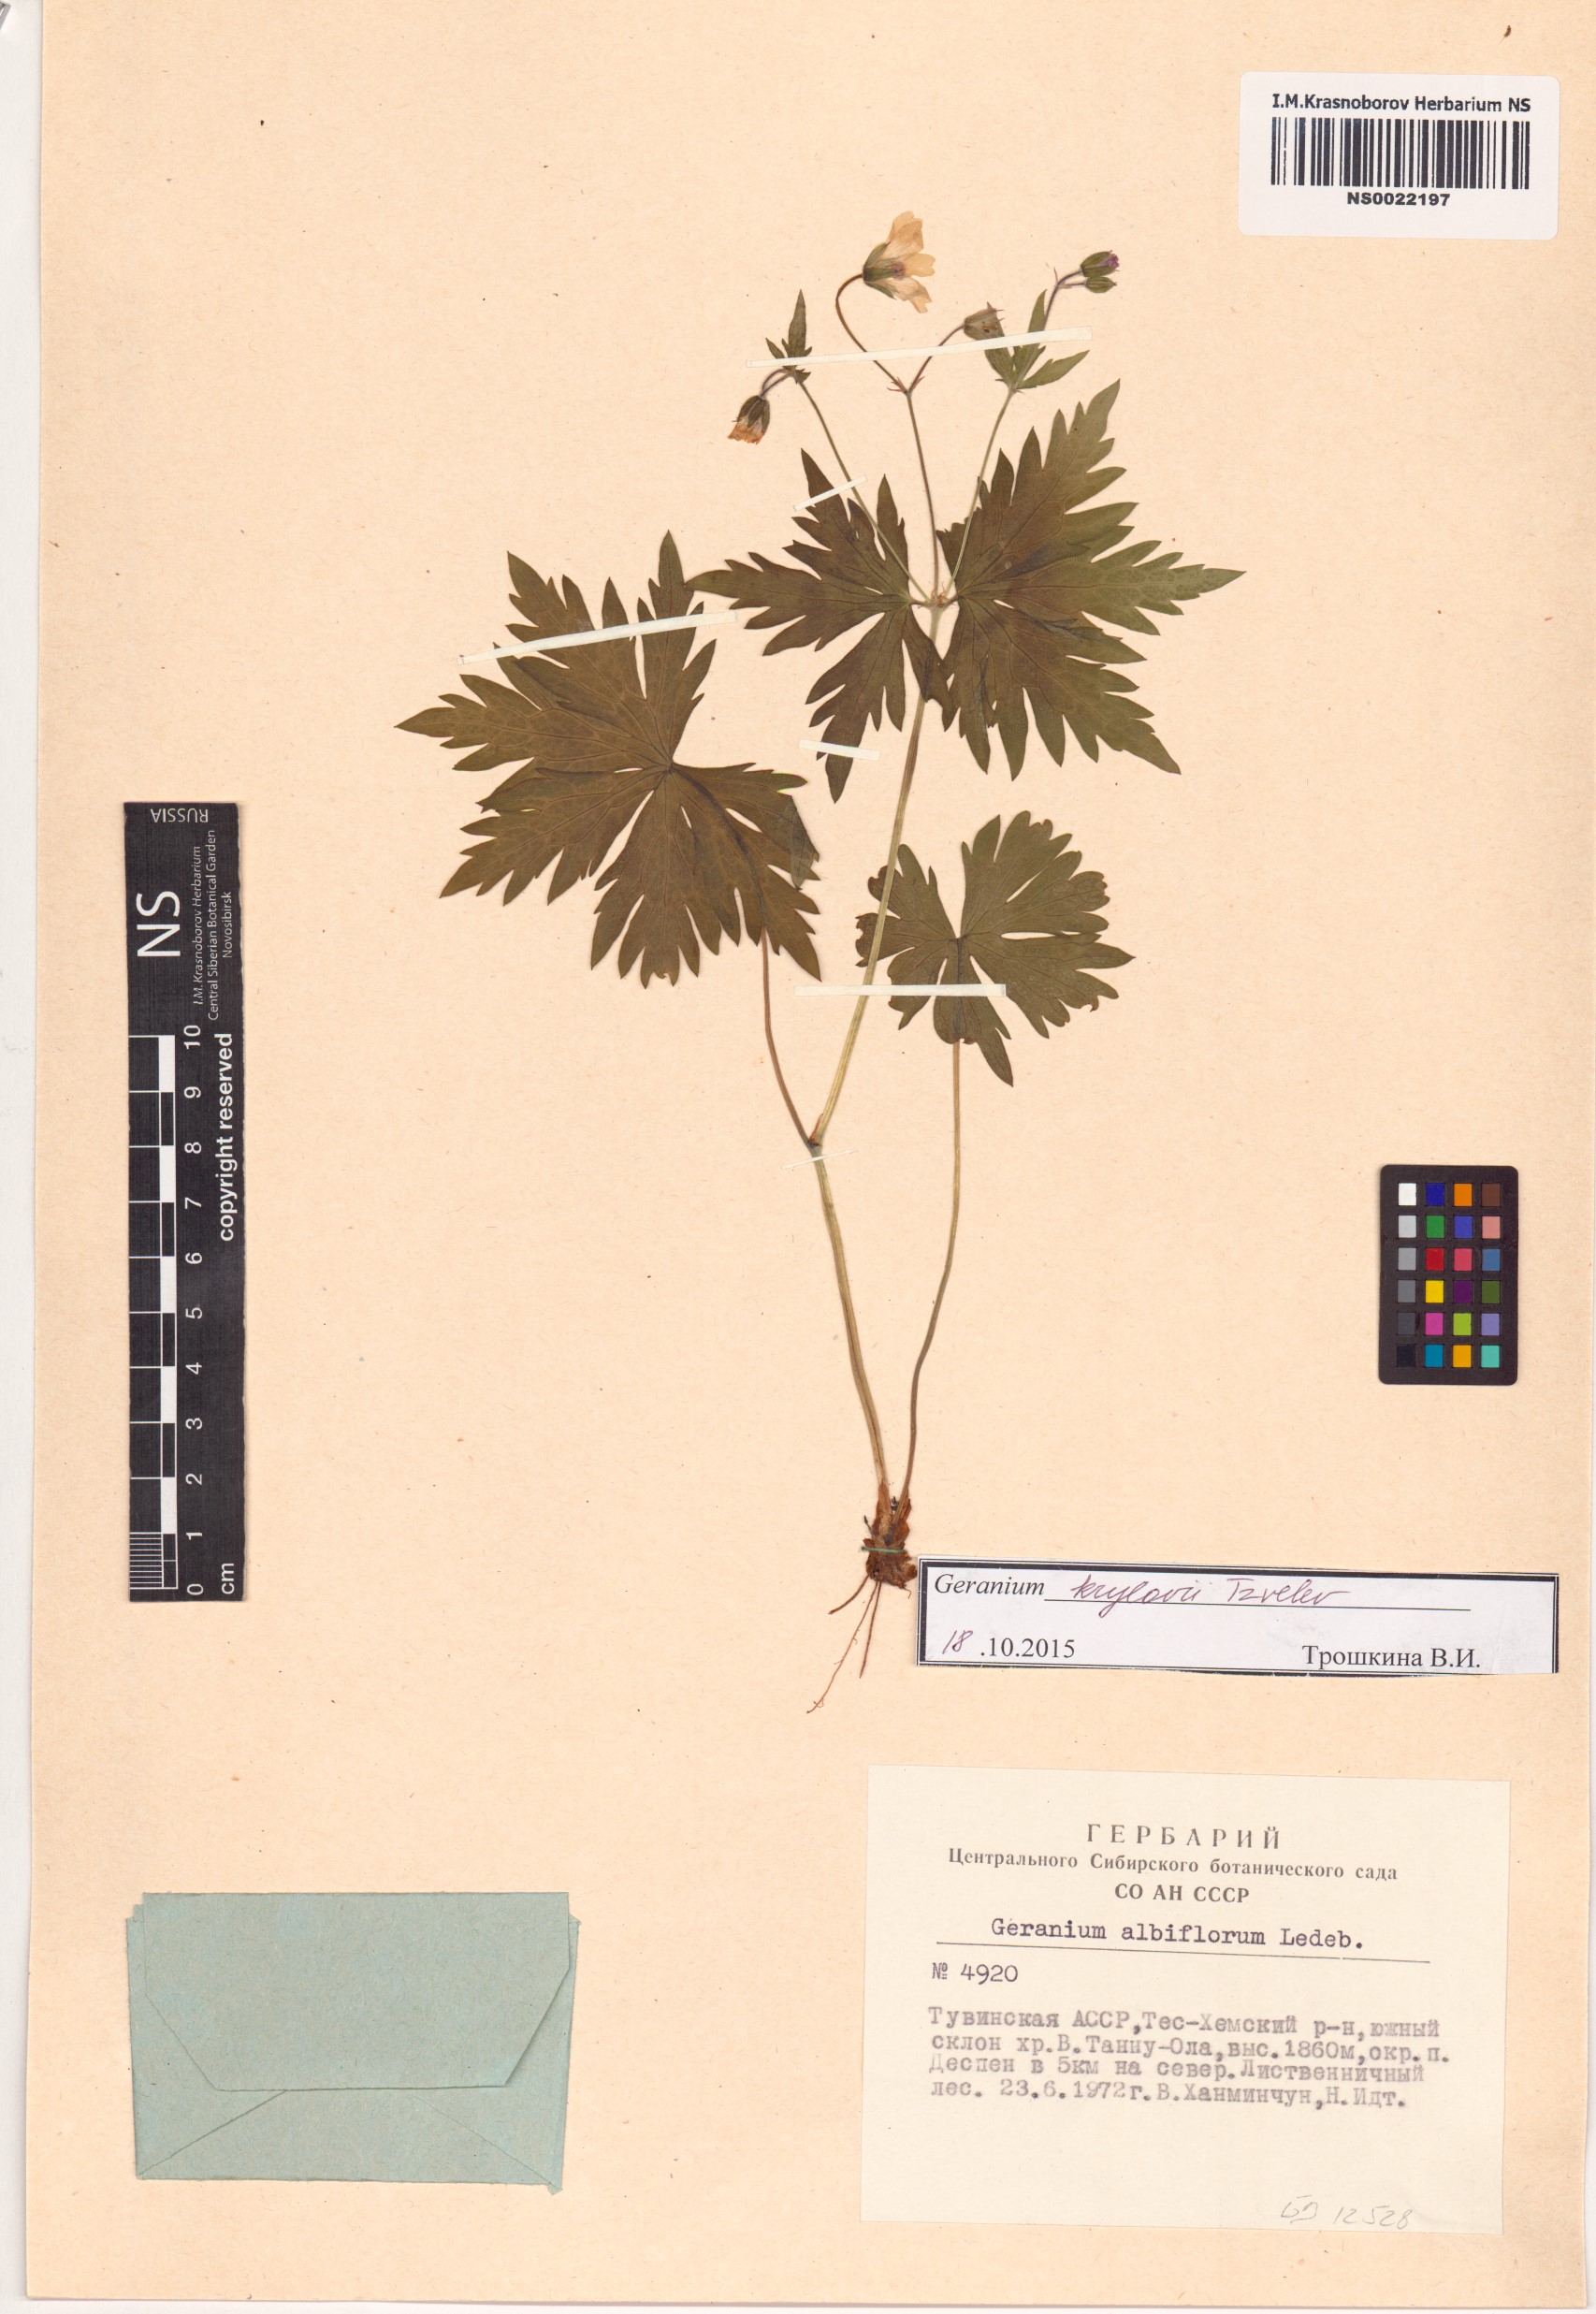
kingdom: Plantae
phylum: Tracheophyta
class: Magnoliopsida
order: Geraniales
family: Geraniaceae
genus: Geranium
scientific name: Geranium sylvaticum
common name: Wood crane's-bill
